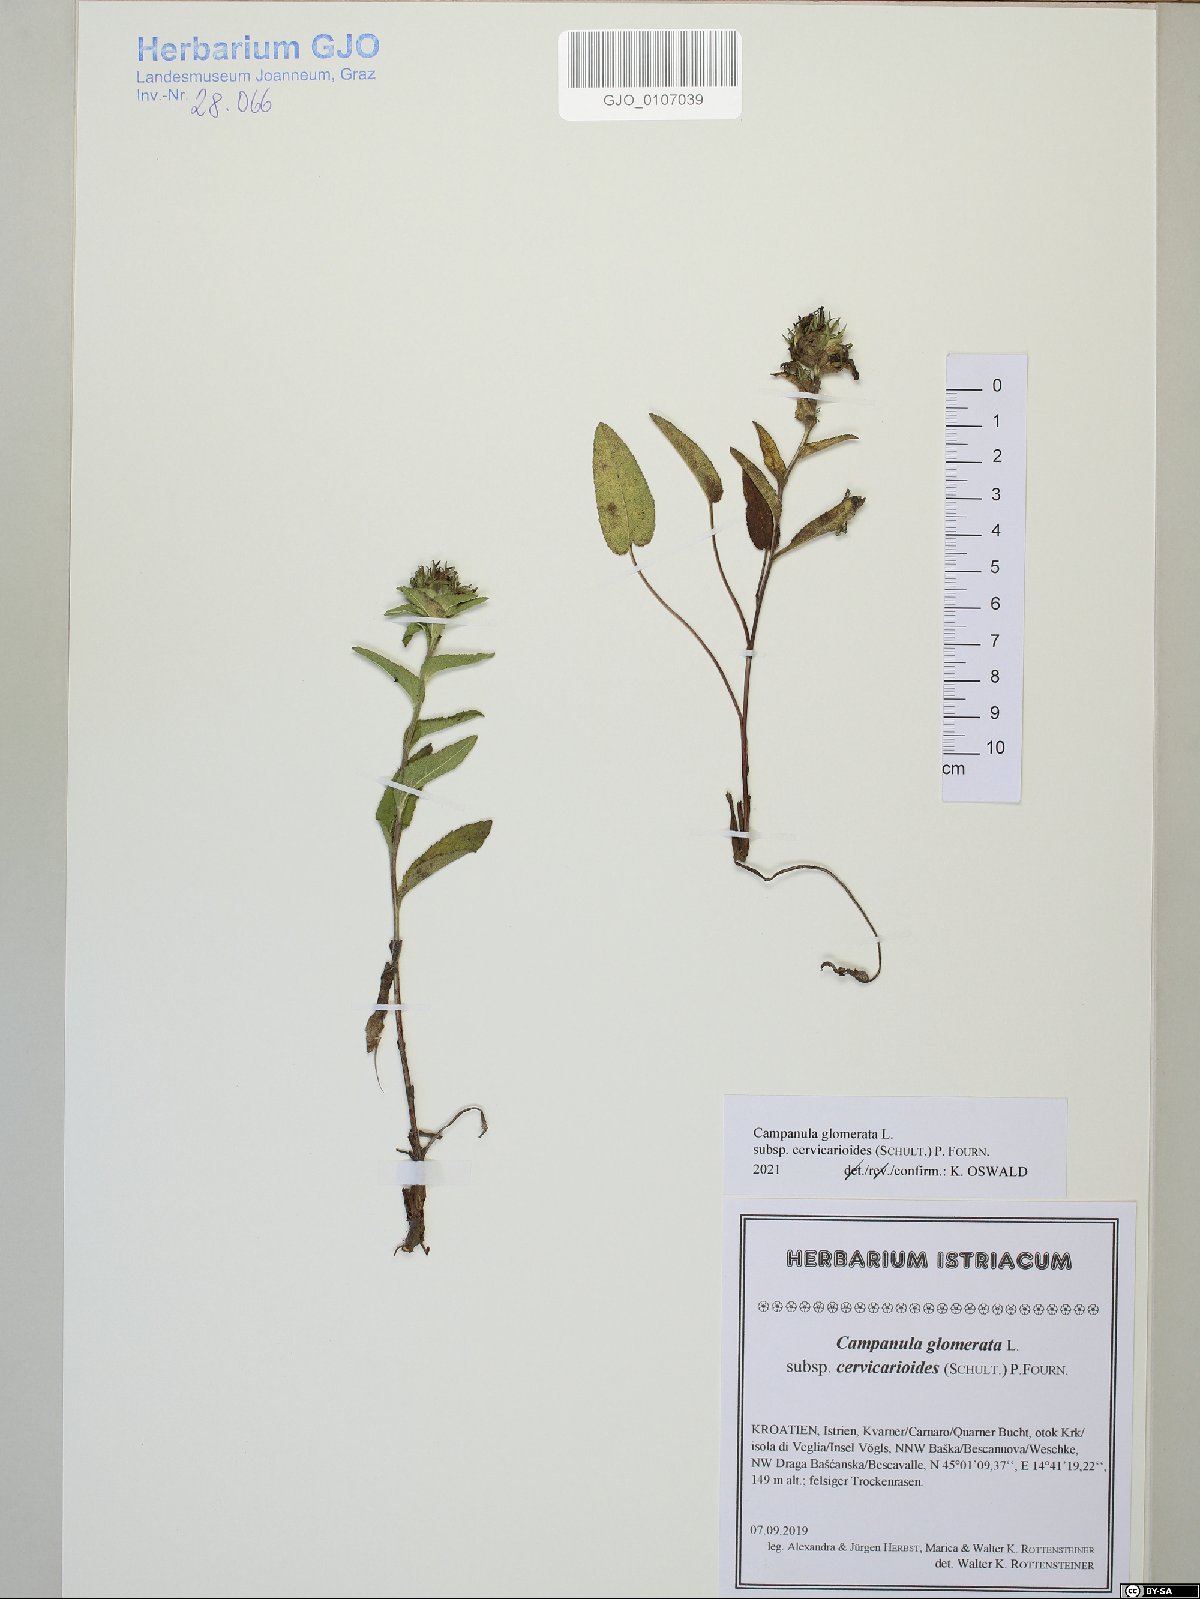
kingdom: Plantae
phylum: Tracheophyta
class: Magnoliopsida
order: Asterales
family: Campanulaceae
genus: Campanula
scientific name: Campanula glomerata
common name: Clustered bellflower
